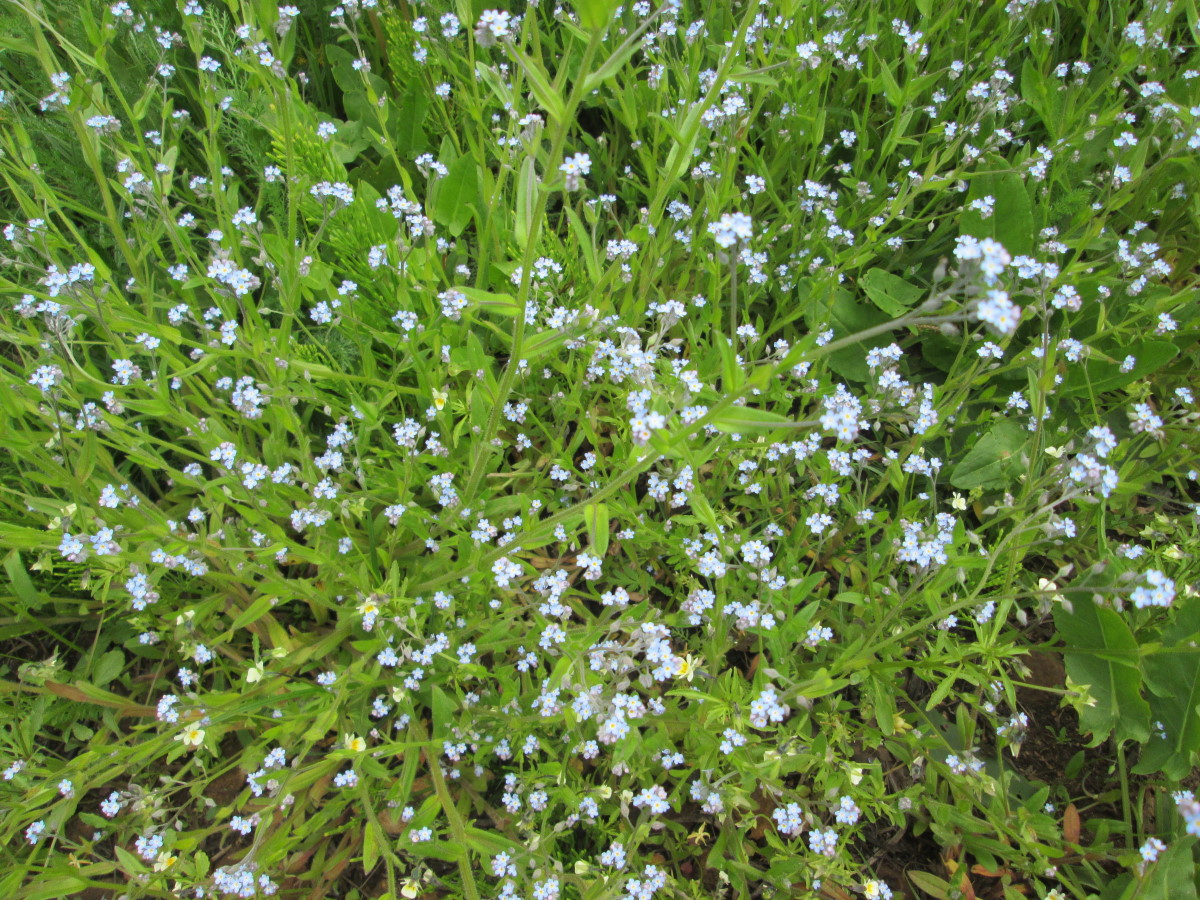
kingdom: Plantae
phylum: Tracheophyta
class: Magnoliopsida
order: Boraginales
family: Boraginaceae
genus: Myosotis
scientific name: Myosotis
